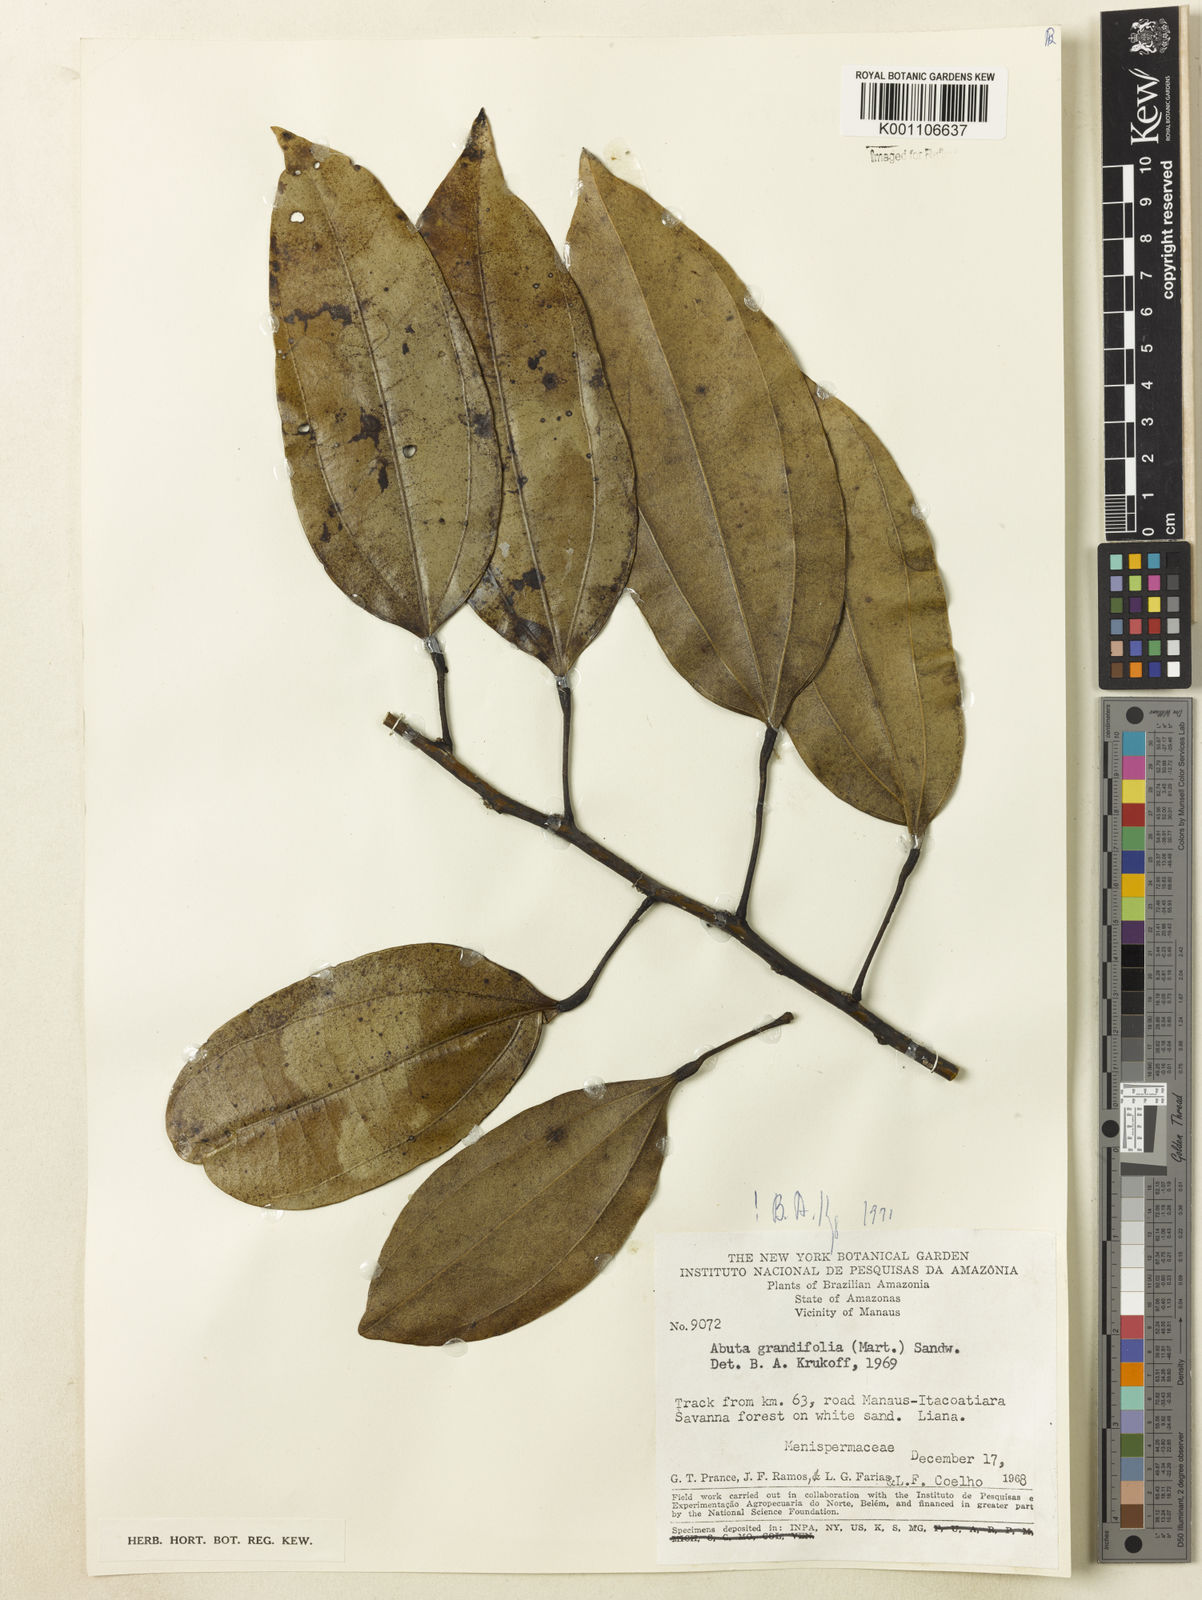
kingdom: Plantae
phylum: Tracheophyta
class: Magnoliopsida
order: Ranunculales
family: Menispermaceae
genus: Abuta
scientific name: Abuta grandifolia
